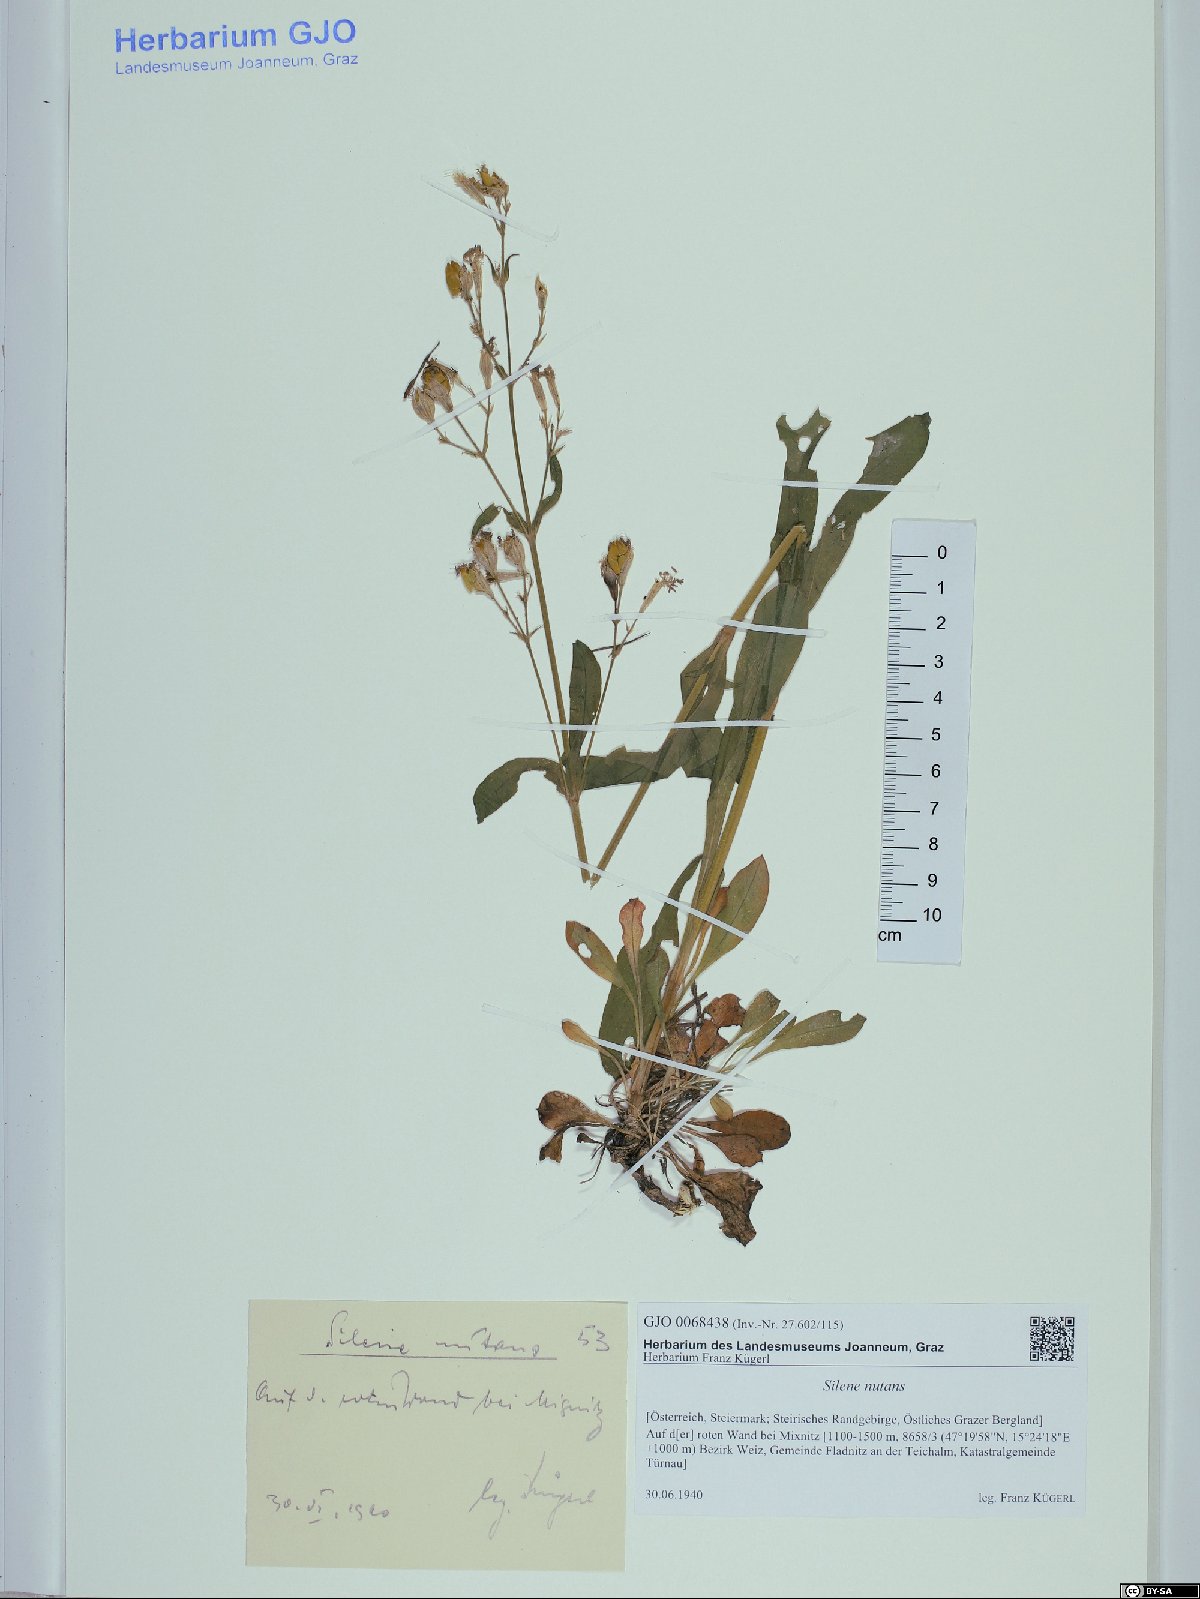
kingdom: Plantae
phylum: Tracheophyta
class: Magnoliopsida
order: Caryophyllales
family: Caryophyllaceae
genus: Silene
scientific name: Silene nutans
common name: Nottingham catchfly
